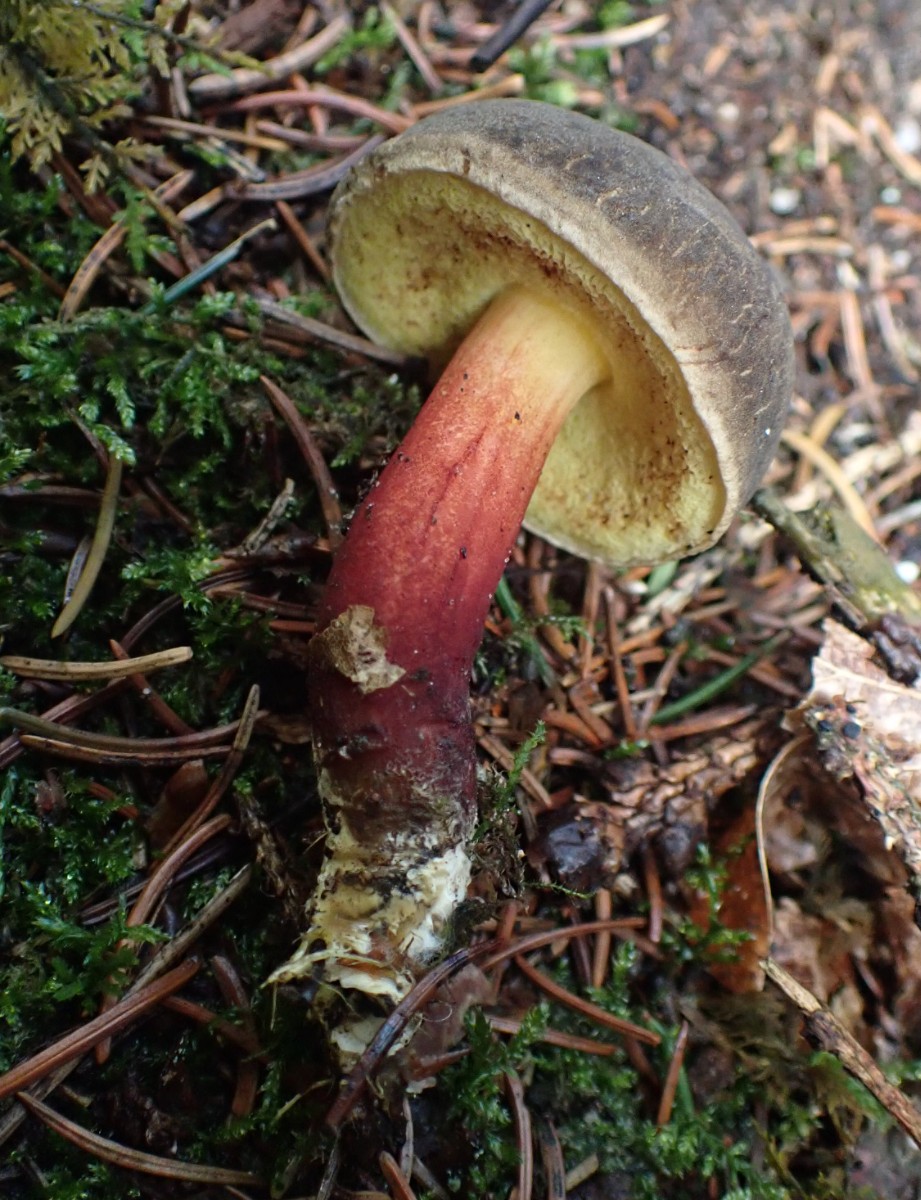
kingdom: Fungi
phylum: Basidiomycota
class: Agaricomycetes
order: Boletales
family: Boletaceae
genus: Xerocomellus
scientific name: Xerocomellus chrysenteron
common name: rødsprukken rørhat
